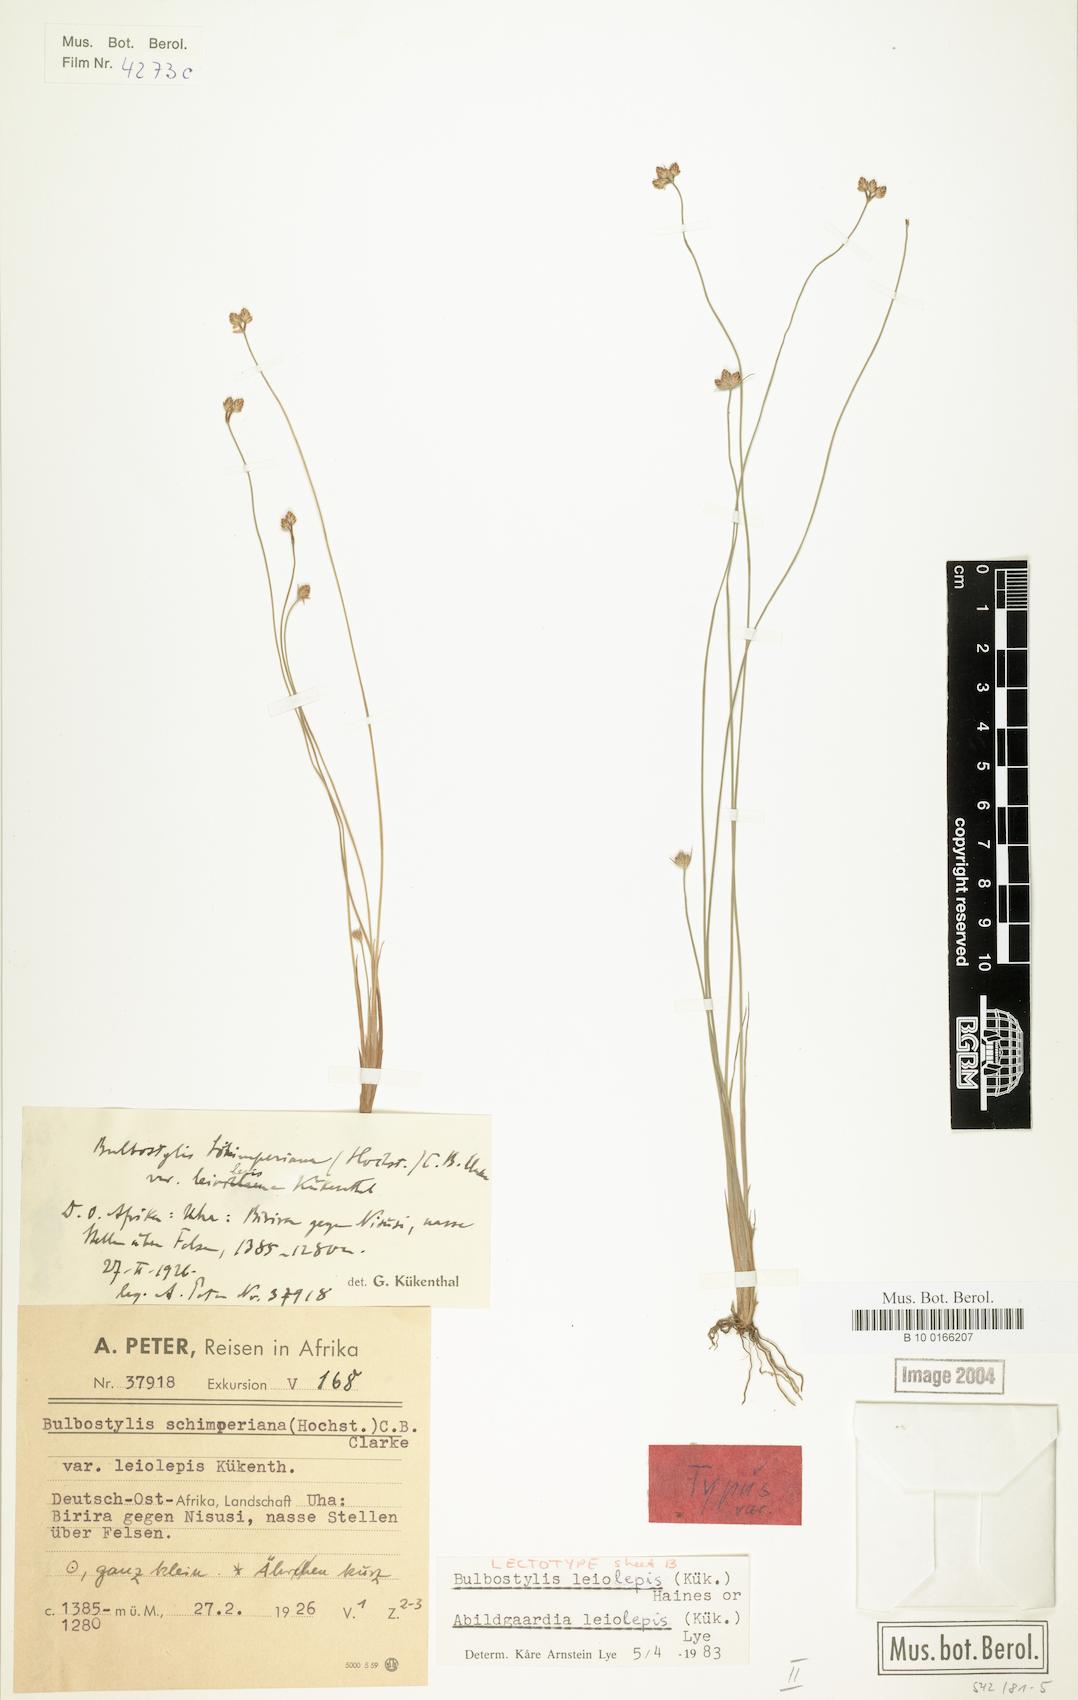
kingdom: Plantae
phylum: Tracheophyta
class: Liliopsida
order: Poales
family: Cyperaceae
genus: Bulbostylis
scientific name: Bulbostylis leiolepis
